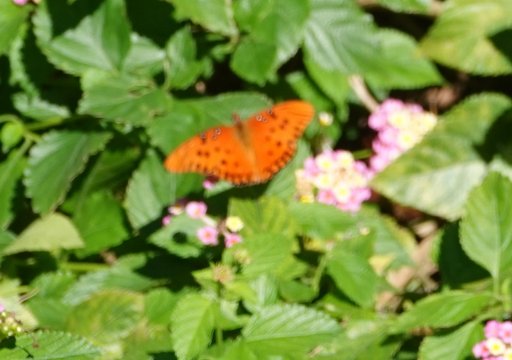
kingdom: Animalia
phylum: Arthropoda
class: Insecta
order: Lepidoptera
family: Nymphalidae
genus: Dione
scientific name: Dione vanillae
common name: Gulf Fritillary
